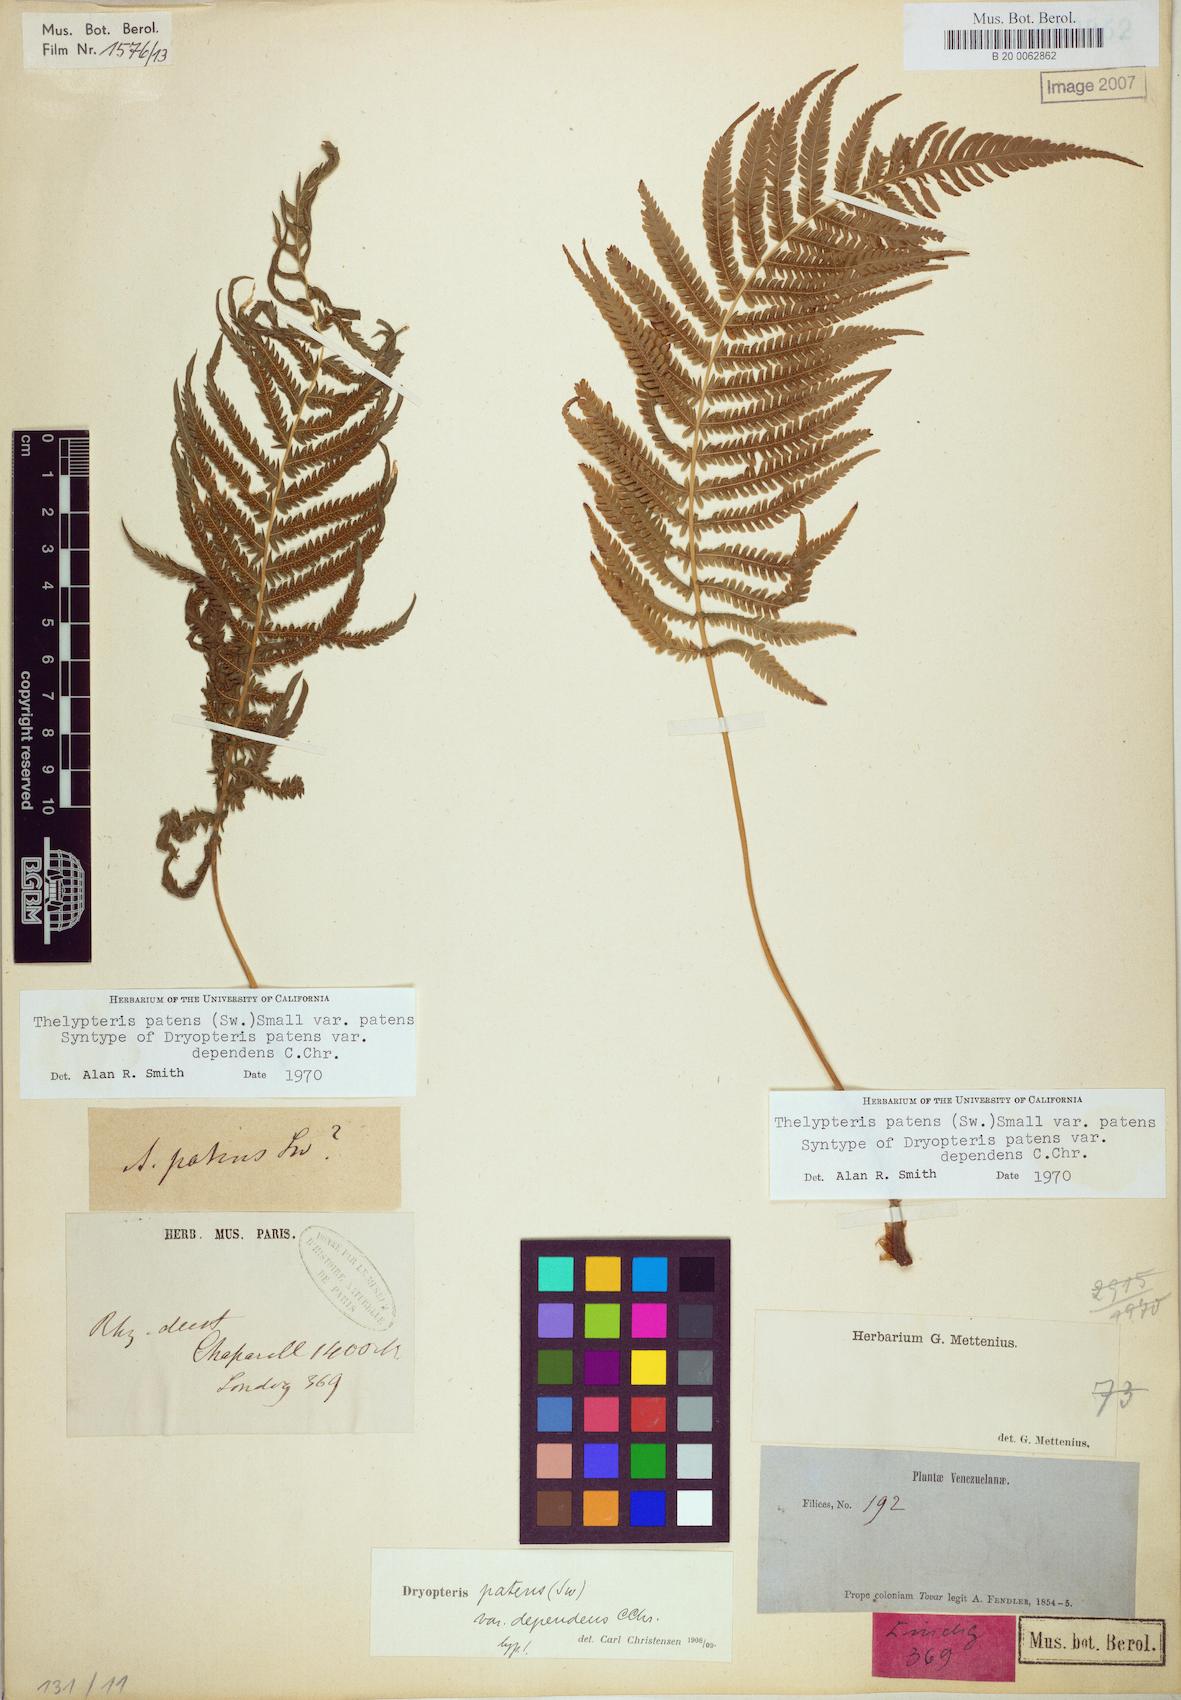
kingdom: Plantae
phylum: Tracheophyta
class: Polypodiopsida
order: Polypodiales
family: Thelypteridaceae
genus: Pelazoneuron
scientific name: Pelazoneuron patens
